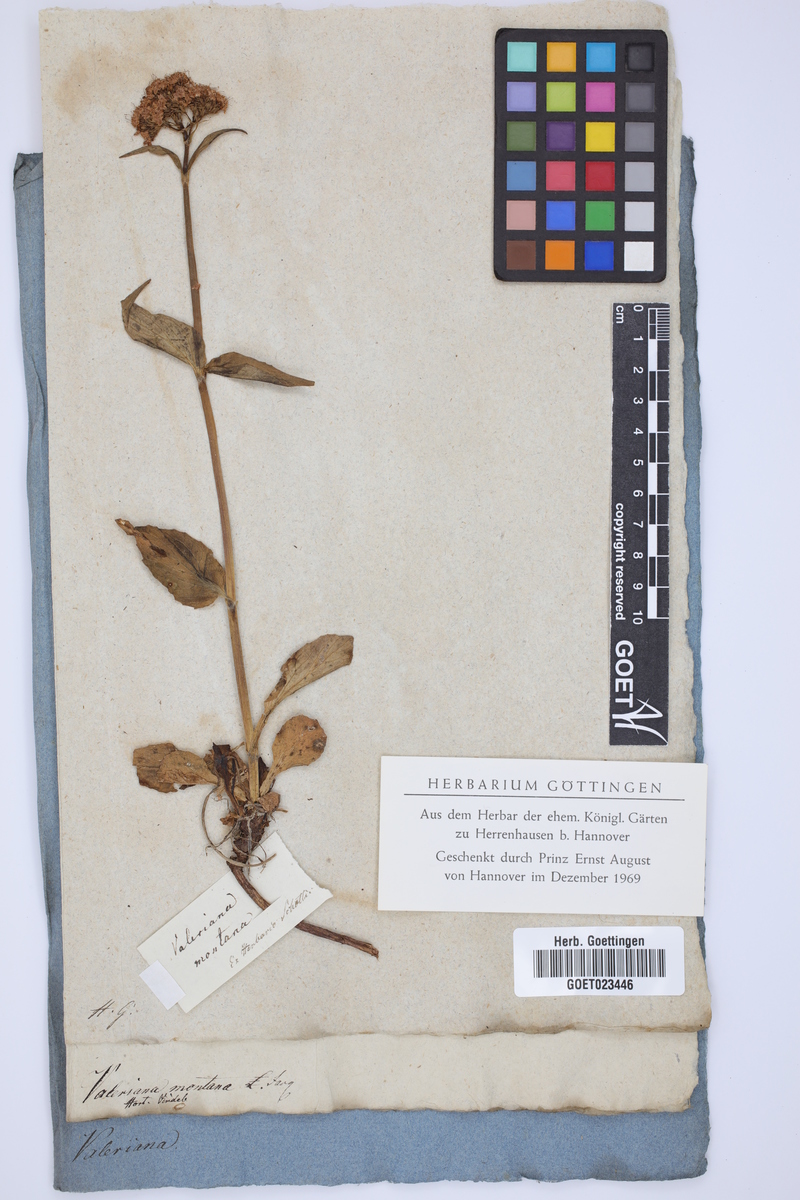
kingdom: Plantae
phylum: Tracheophyta
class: Magnoliopsida
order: Dipsacales
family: Caprifoliaceae
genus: Valeriana
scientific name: Valeriana montana
